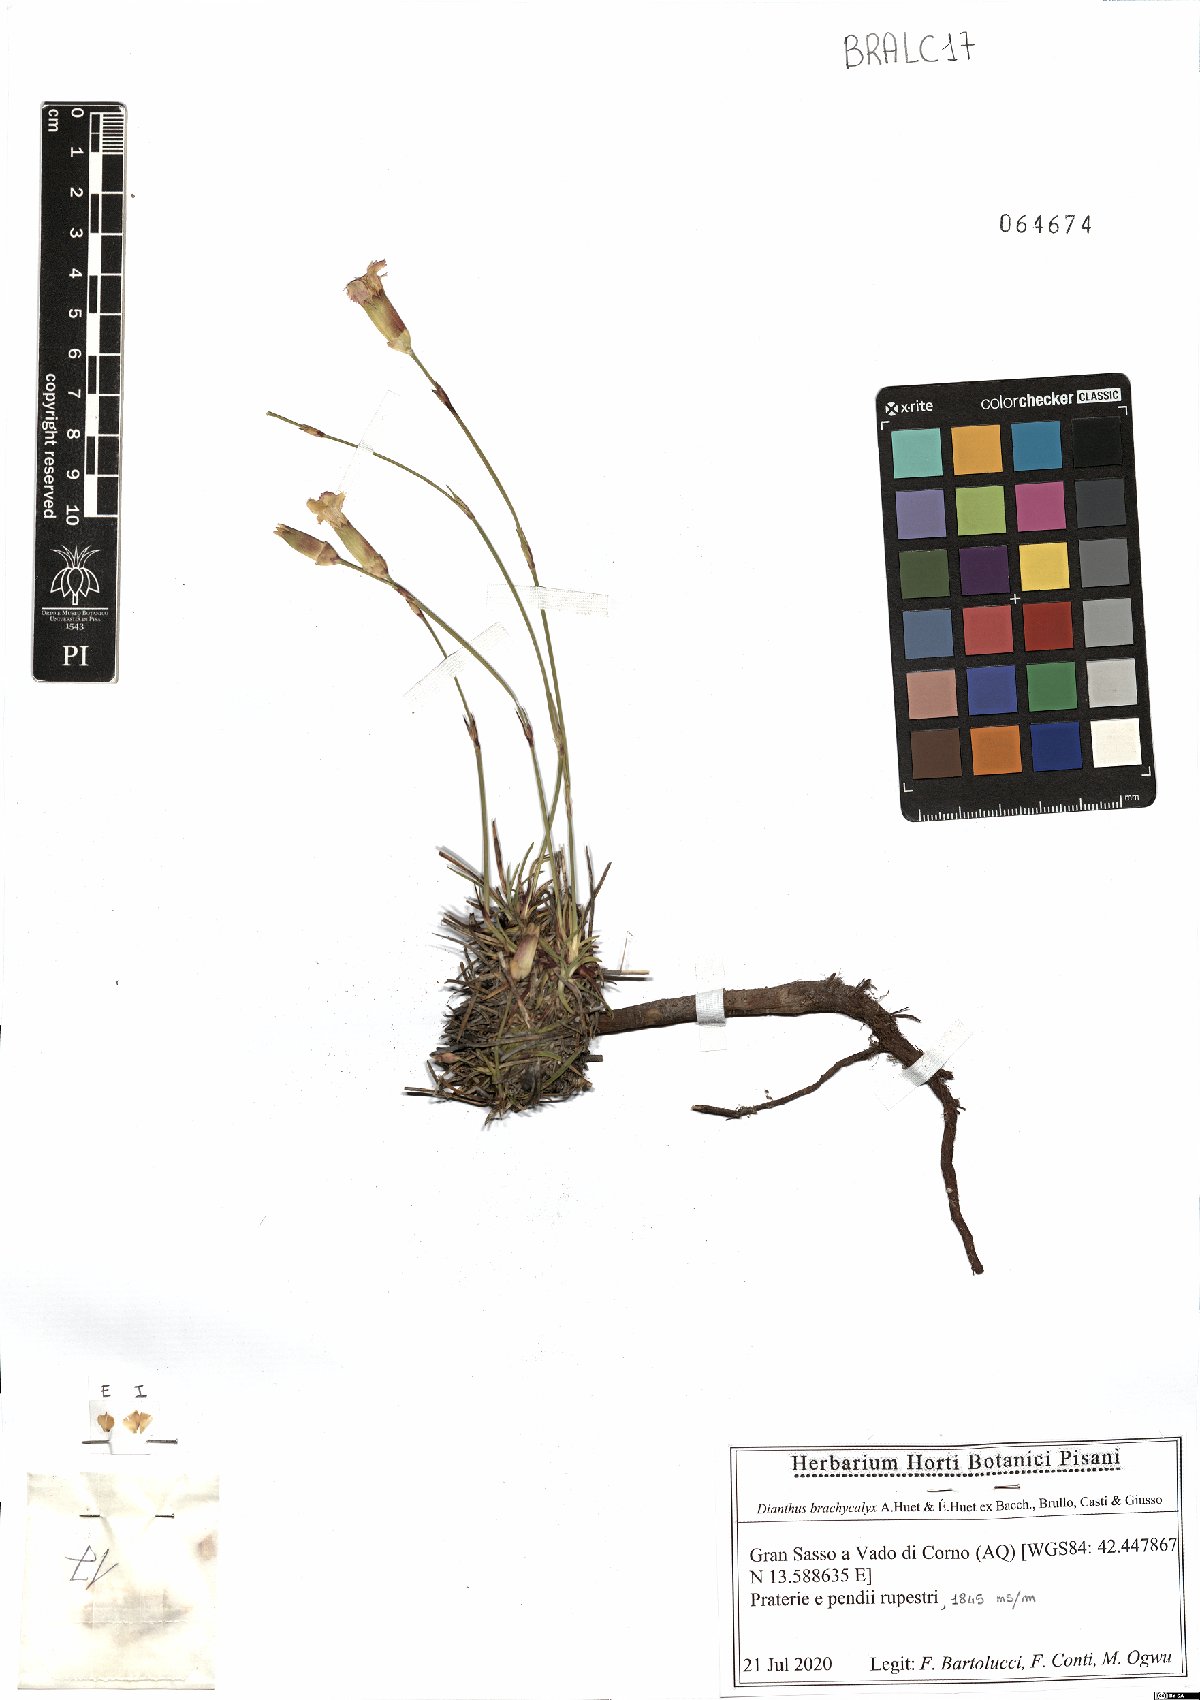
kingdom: Plantae
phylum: Tracheophyta
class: Magnoliopsida
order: Caryophyllales
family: Caryophyllaceae
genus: Dianthus
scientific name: Dianthus brachycalyx
